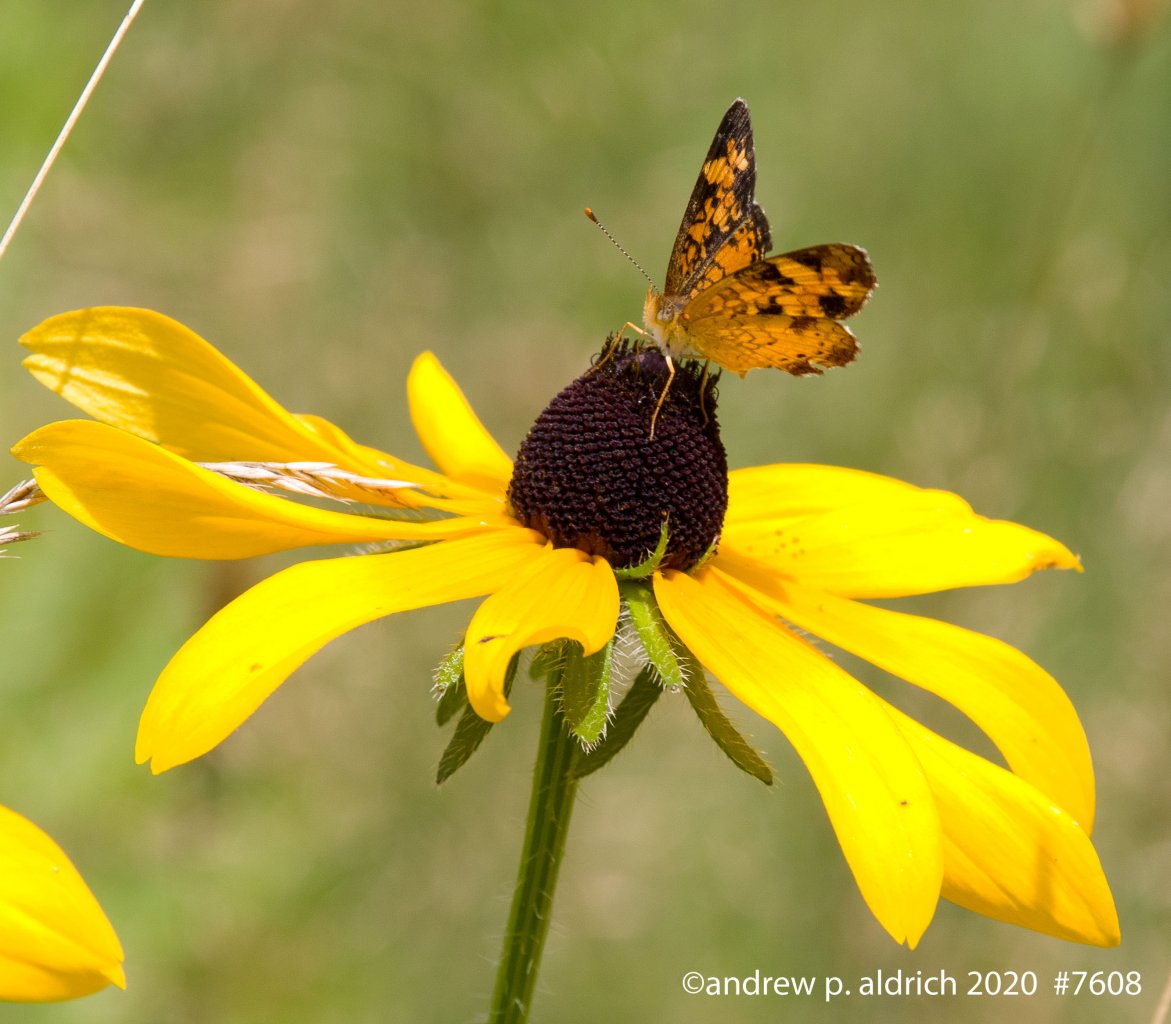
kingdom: Animalia
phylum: Arthropoda
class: Insecta
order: Lepidoptera
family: Nymphalidae
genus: Phyciodes
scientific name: Phyciodes
